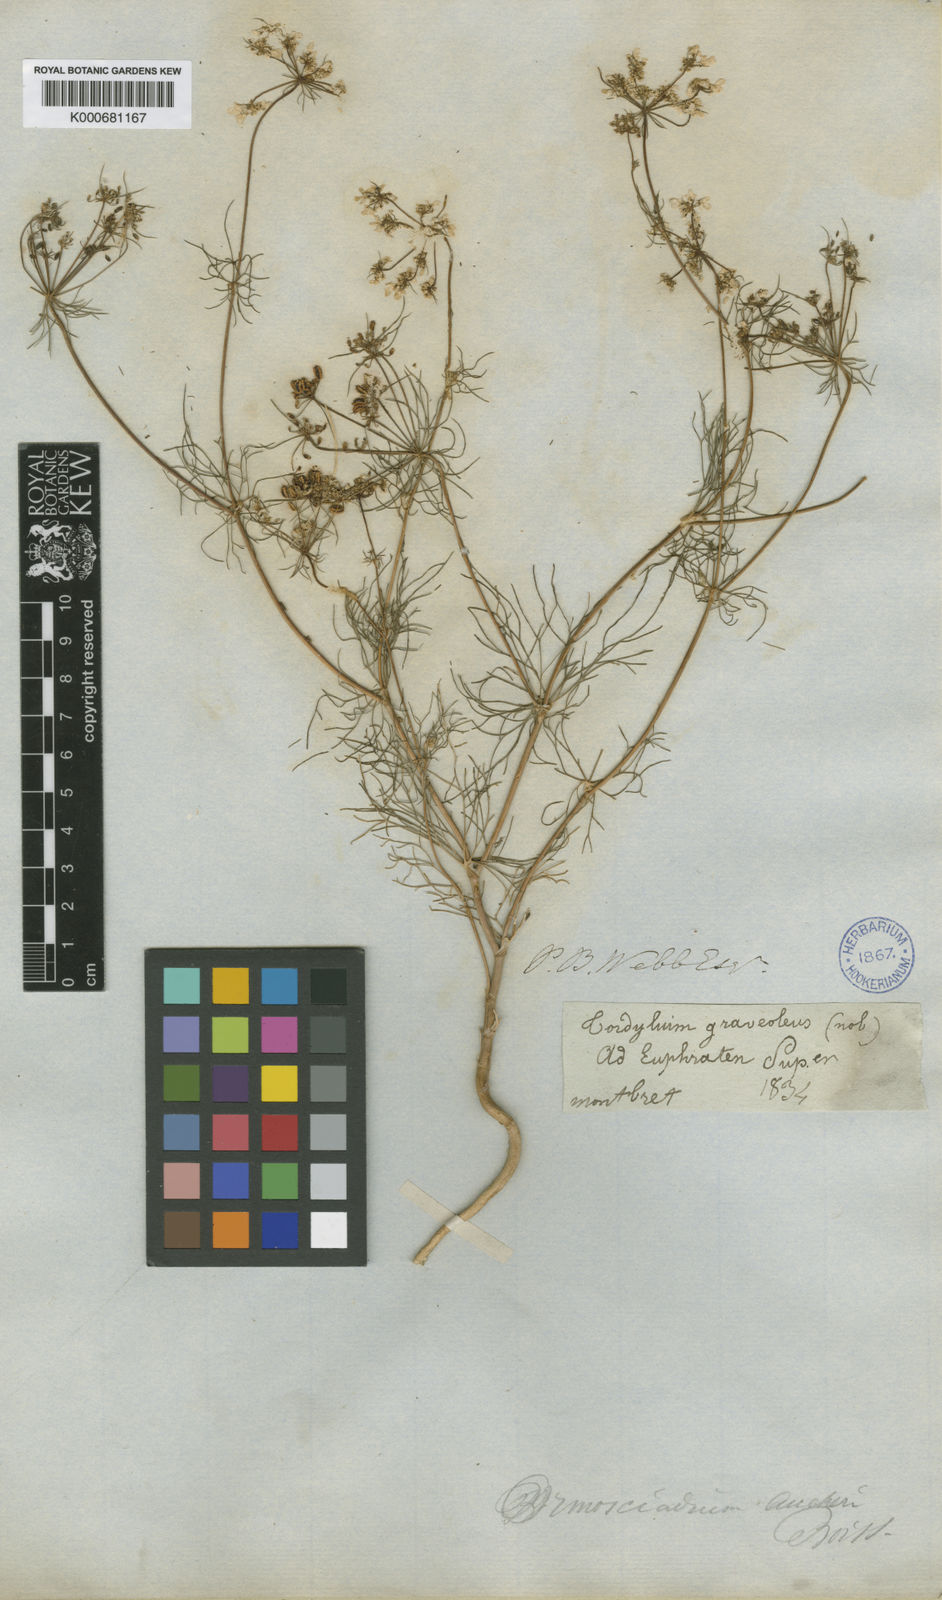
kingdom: Plantae
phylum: Tracheophyta
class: Magnoliopsida
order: Apiales
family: Apiaceae
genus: Ormosciadium
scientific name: Ormosciadium aucheri
